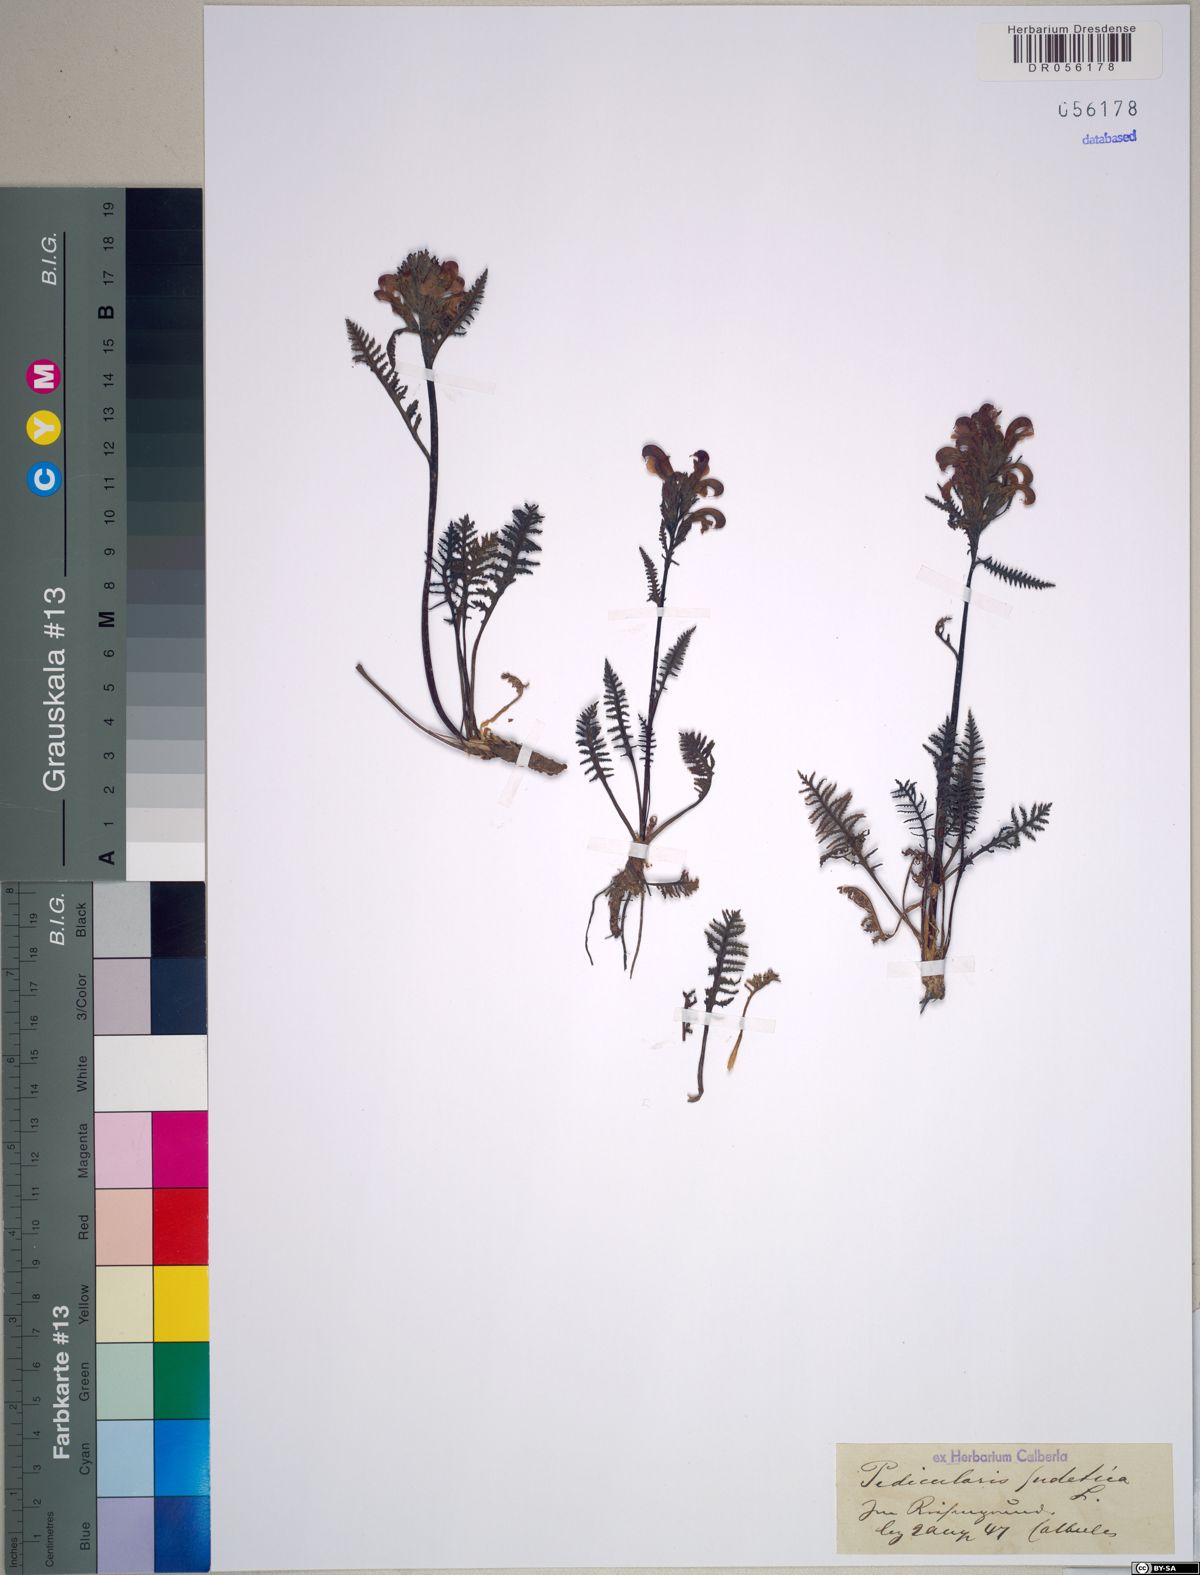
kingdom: Plantae
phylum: Tracheophyta
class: Magnoliopsida
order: Lamiales
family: Orobanchaceae
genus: Pedicularis
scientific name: Pedicularis sudetica
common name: Sudeten lousewort
